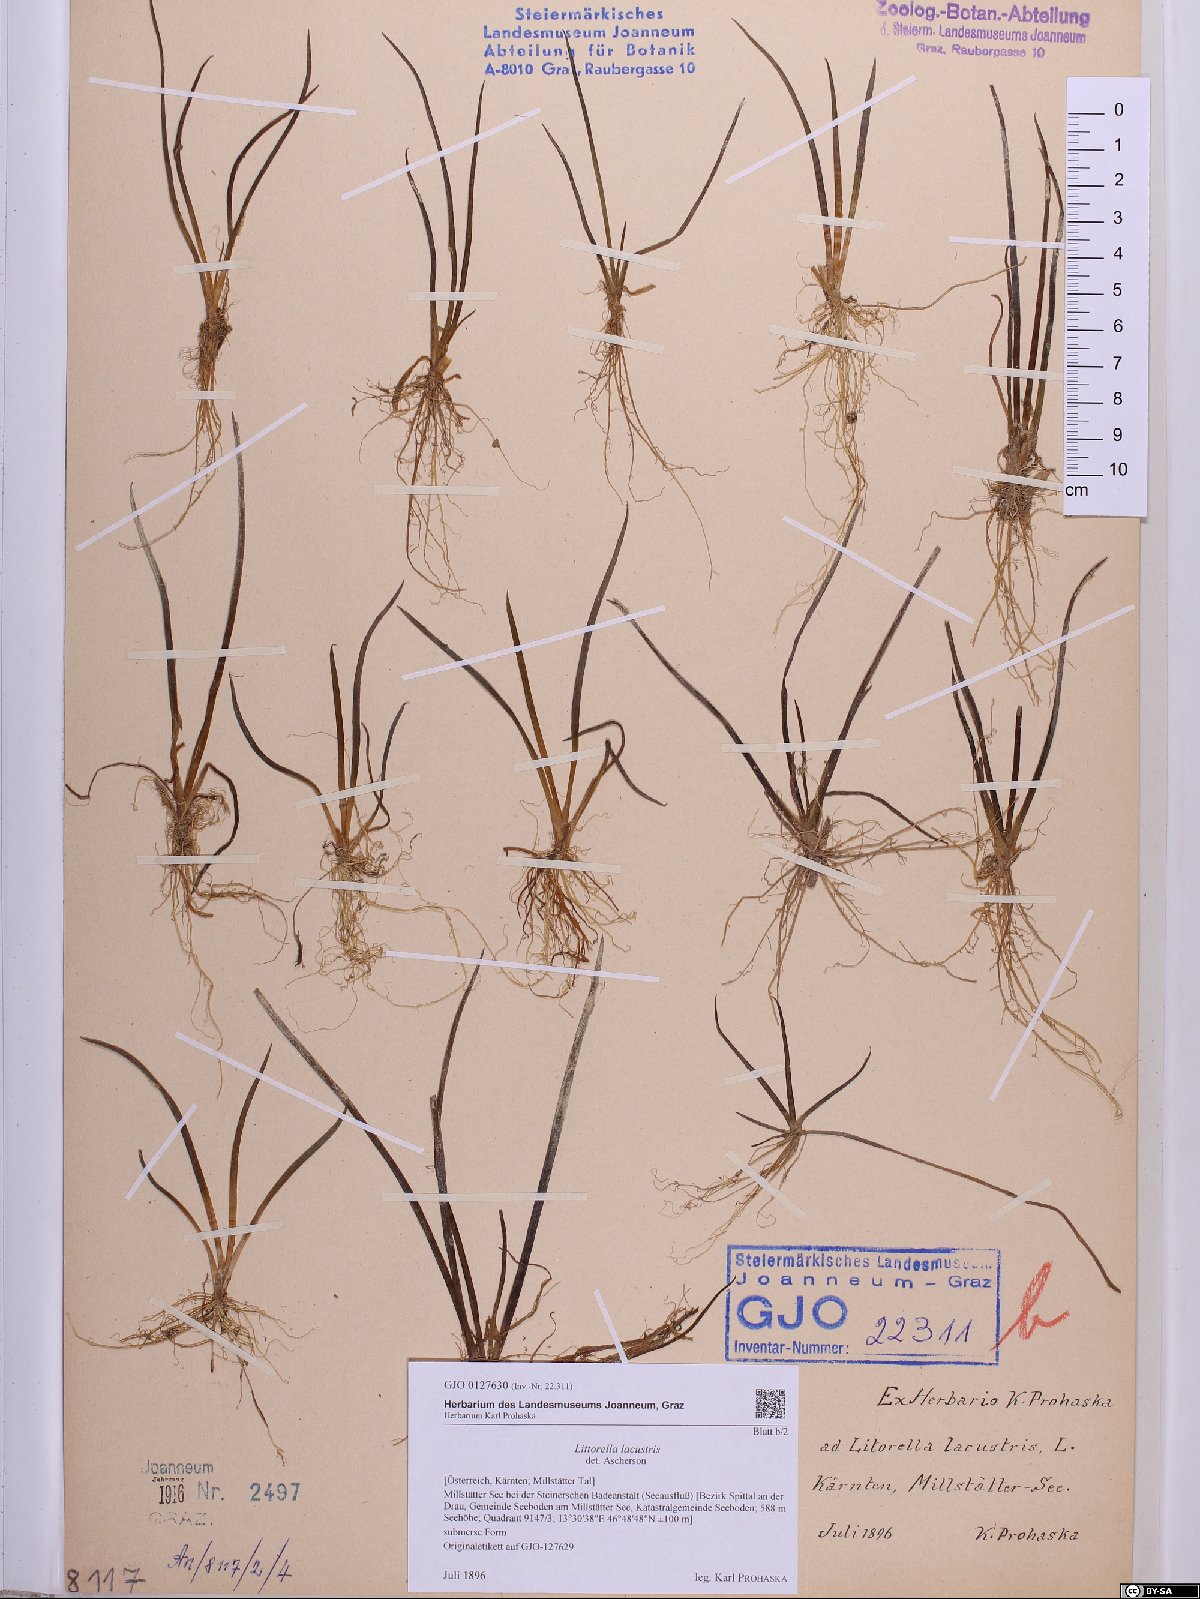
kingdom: Plantae
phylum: Tracheophyta
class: Magnoliopsida
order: Lamiales
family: Plantaginaceae
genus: Littorella
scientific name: Littorella uniflora
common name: Shoreweed
